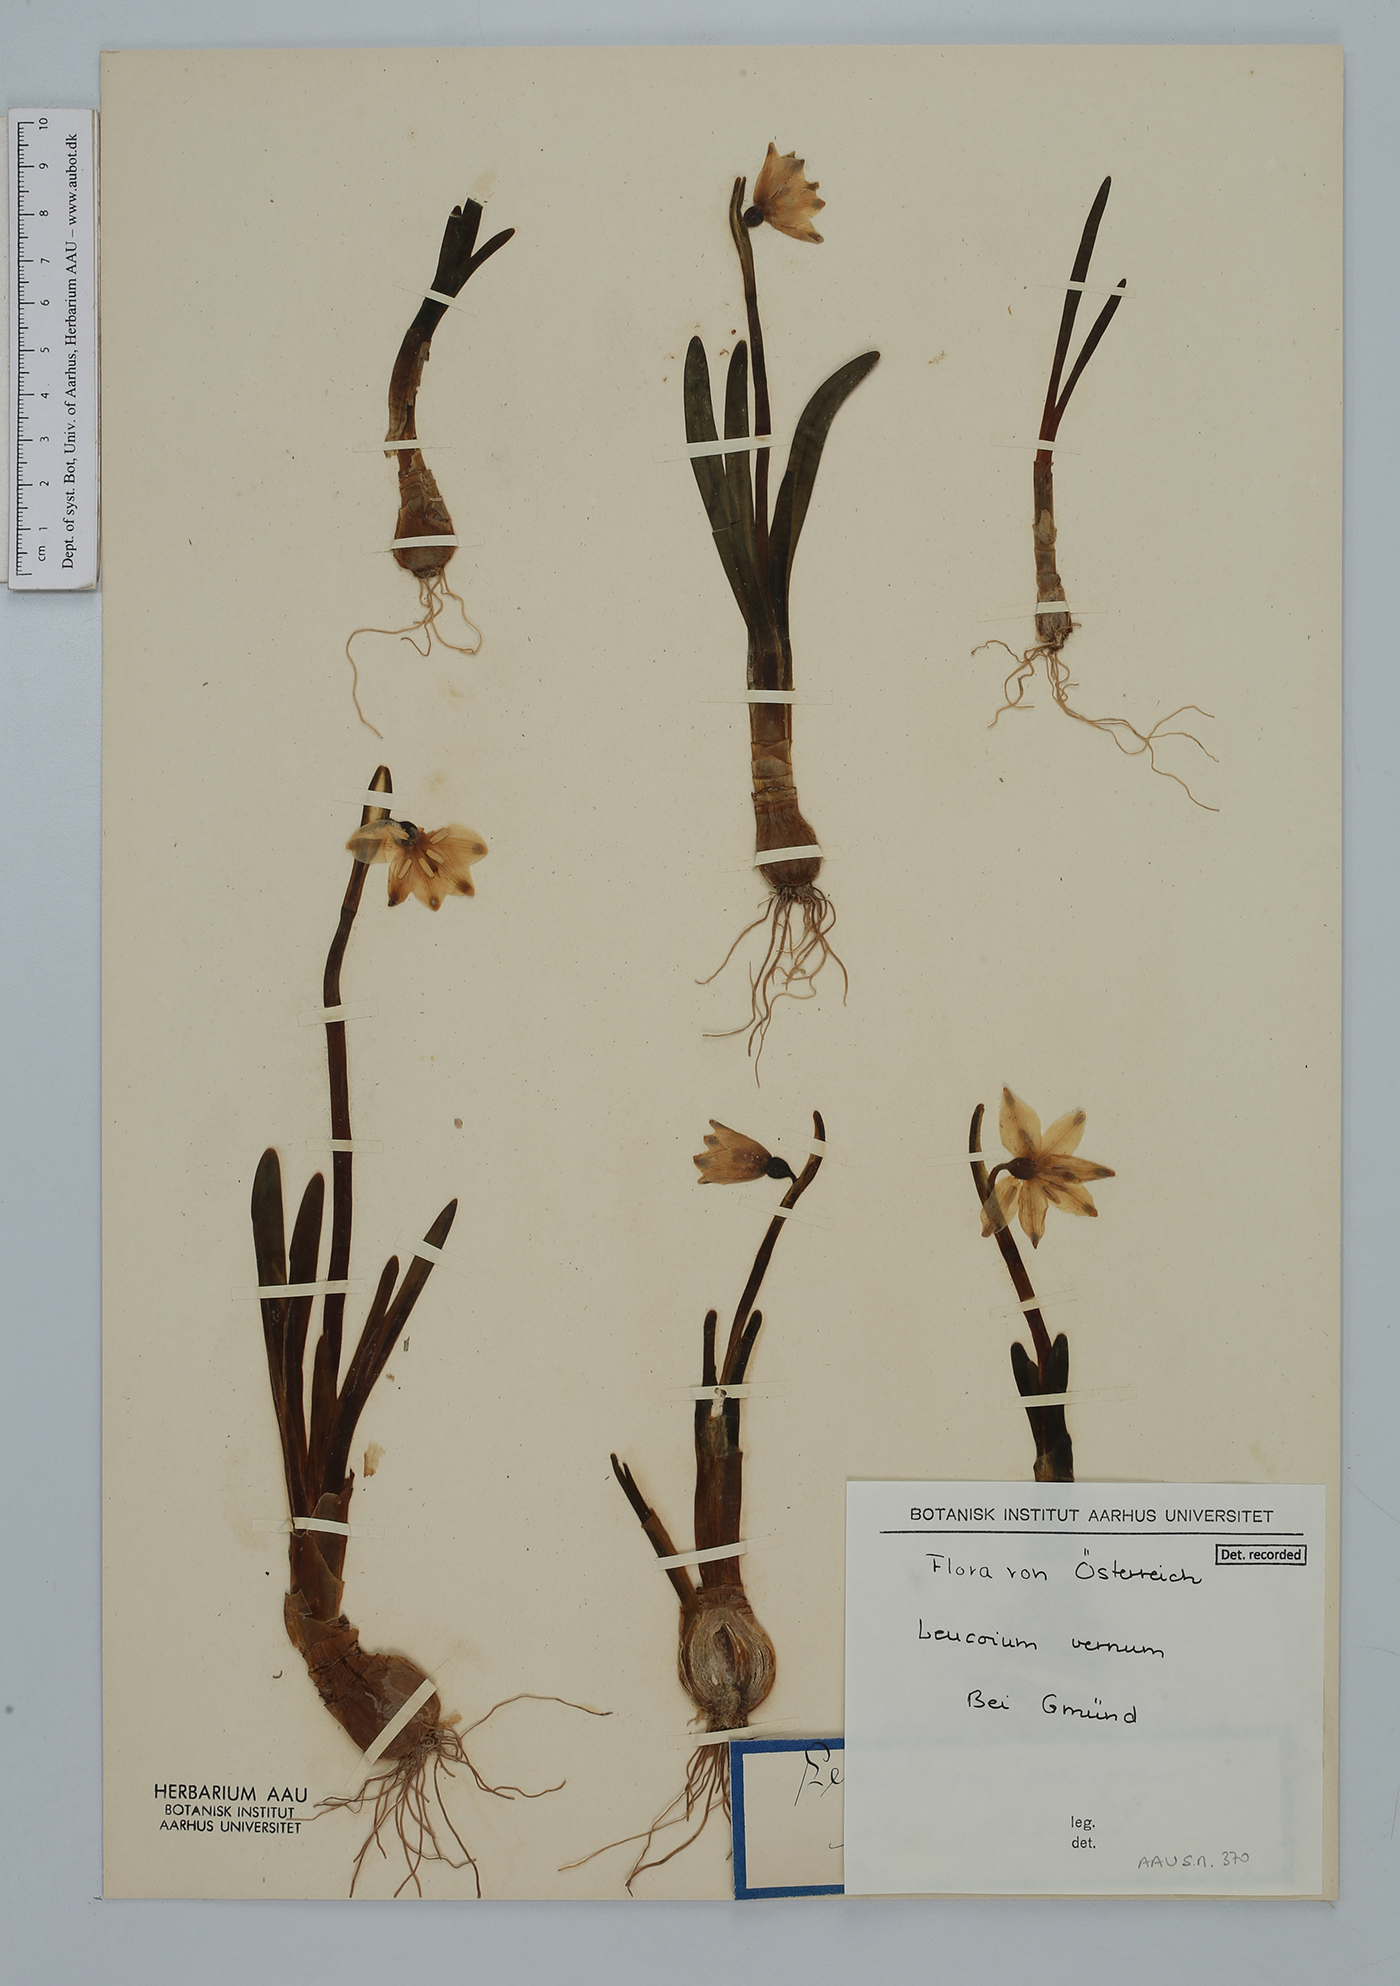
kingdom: Plantae
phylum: Tracheophyta
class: Liliopsida
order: Asparagales
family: Amaryllidaceae
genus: Leucojum
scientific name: Leucojum vernum
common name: Spring snowflake
